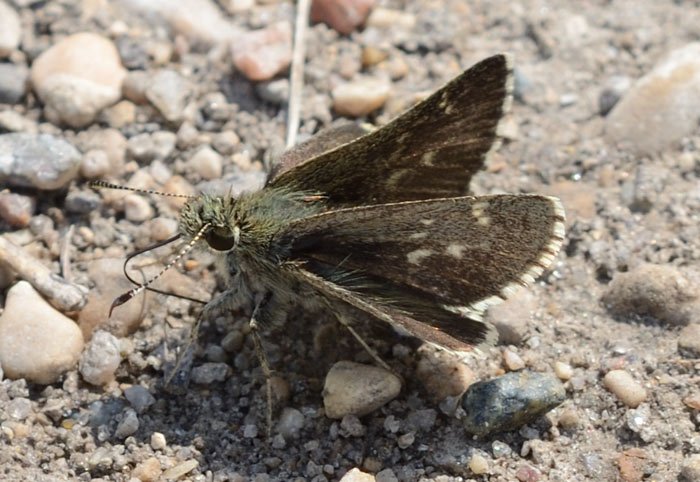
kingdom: Animalia
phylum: Arthropoda
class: Insecta
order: Lepidoptera
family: Hesperiidae
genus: Mastor
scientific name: Mastor hegon
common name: Pepper and Salt Skipper
